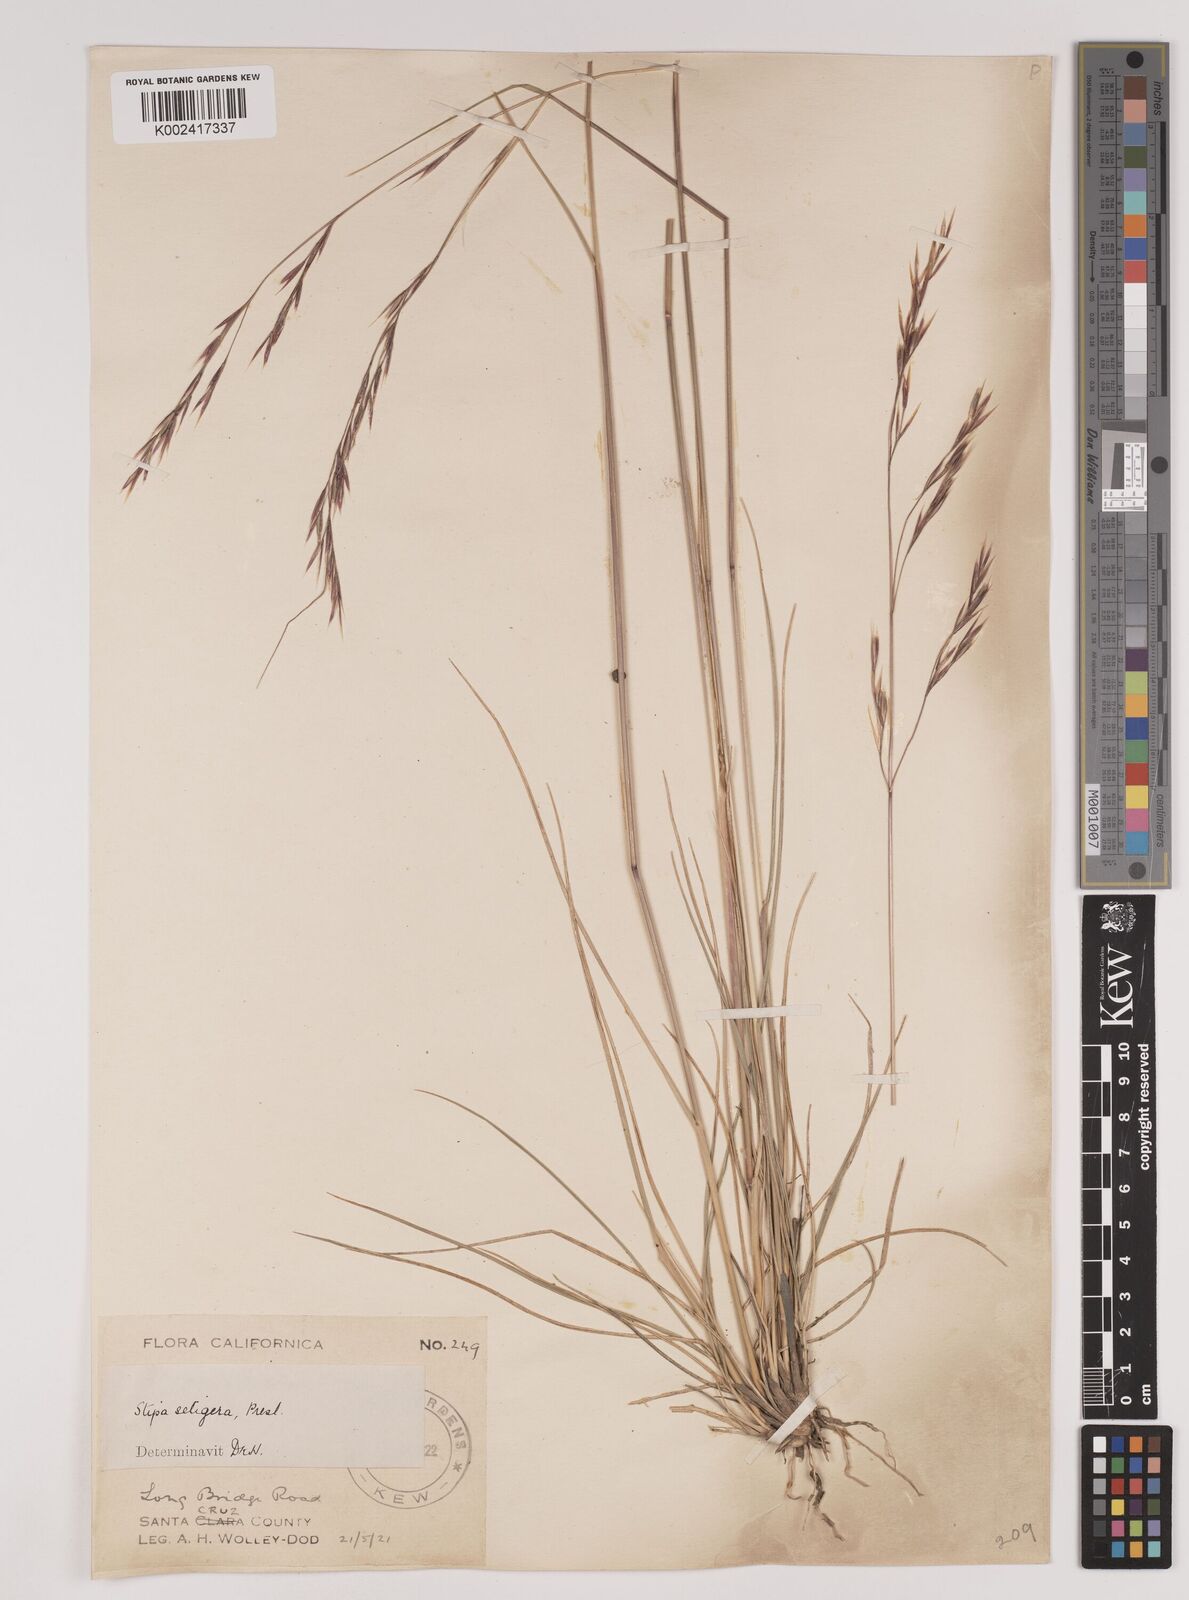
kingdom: Plantae
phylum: Tracheophyta
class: Liliopsida
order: Poales
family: Poaceae
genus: Nassella
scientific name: Nassella pulchra
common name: Purple needlegrass
